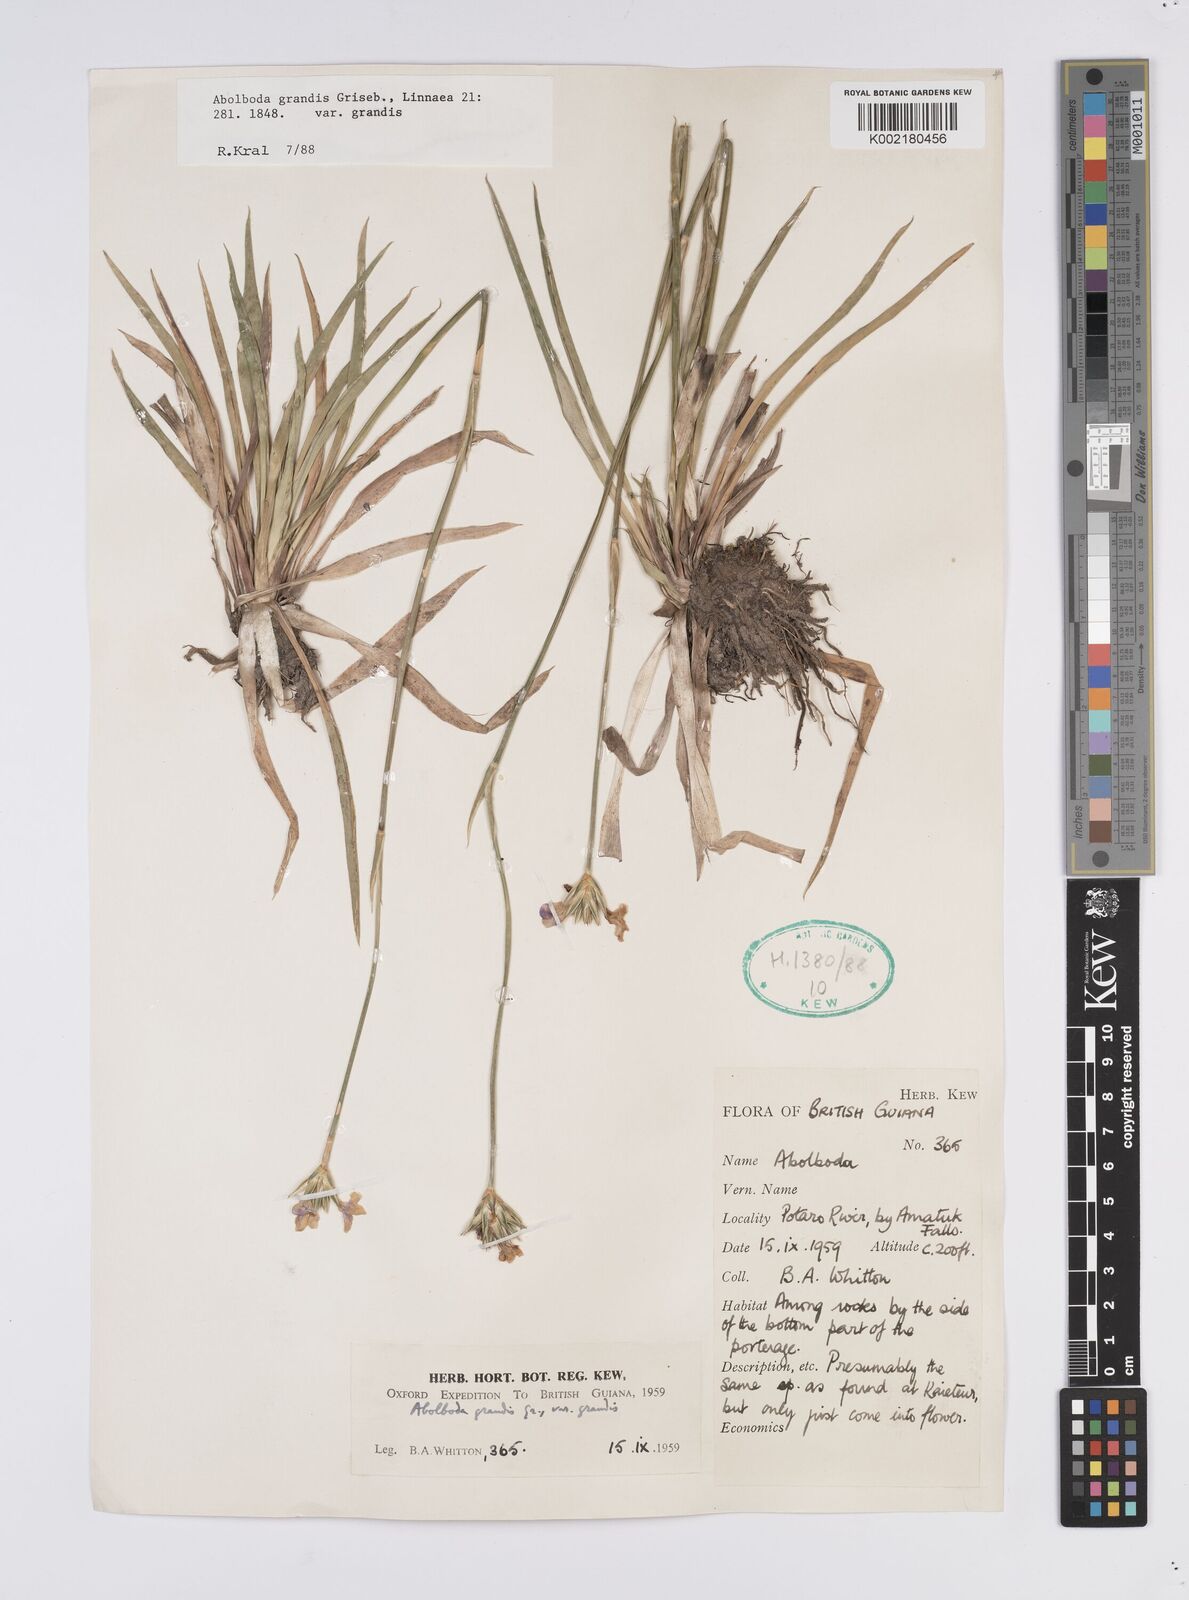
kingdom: Plantae
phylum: Tracheophyta
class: Liliopsida
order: Poales
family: Xyridaceae
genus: Abolboda
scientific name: Abolboda grandis
